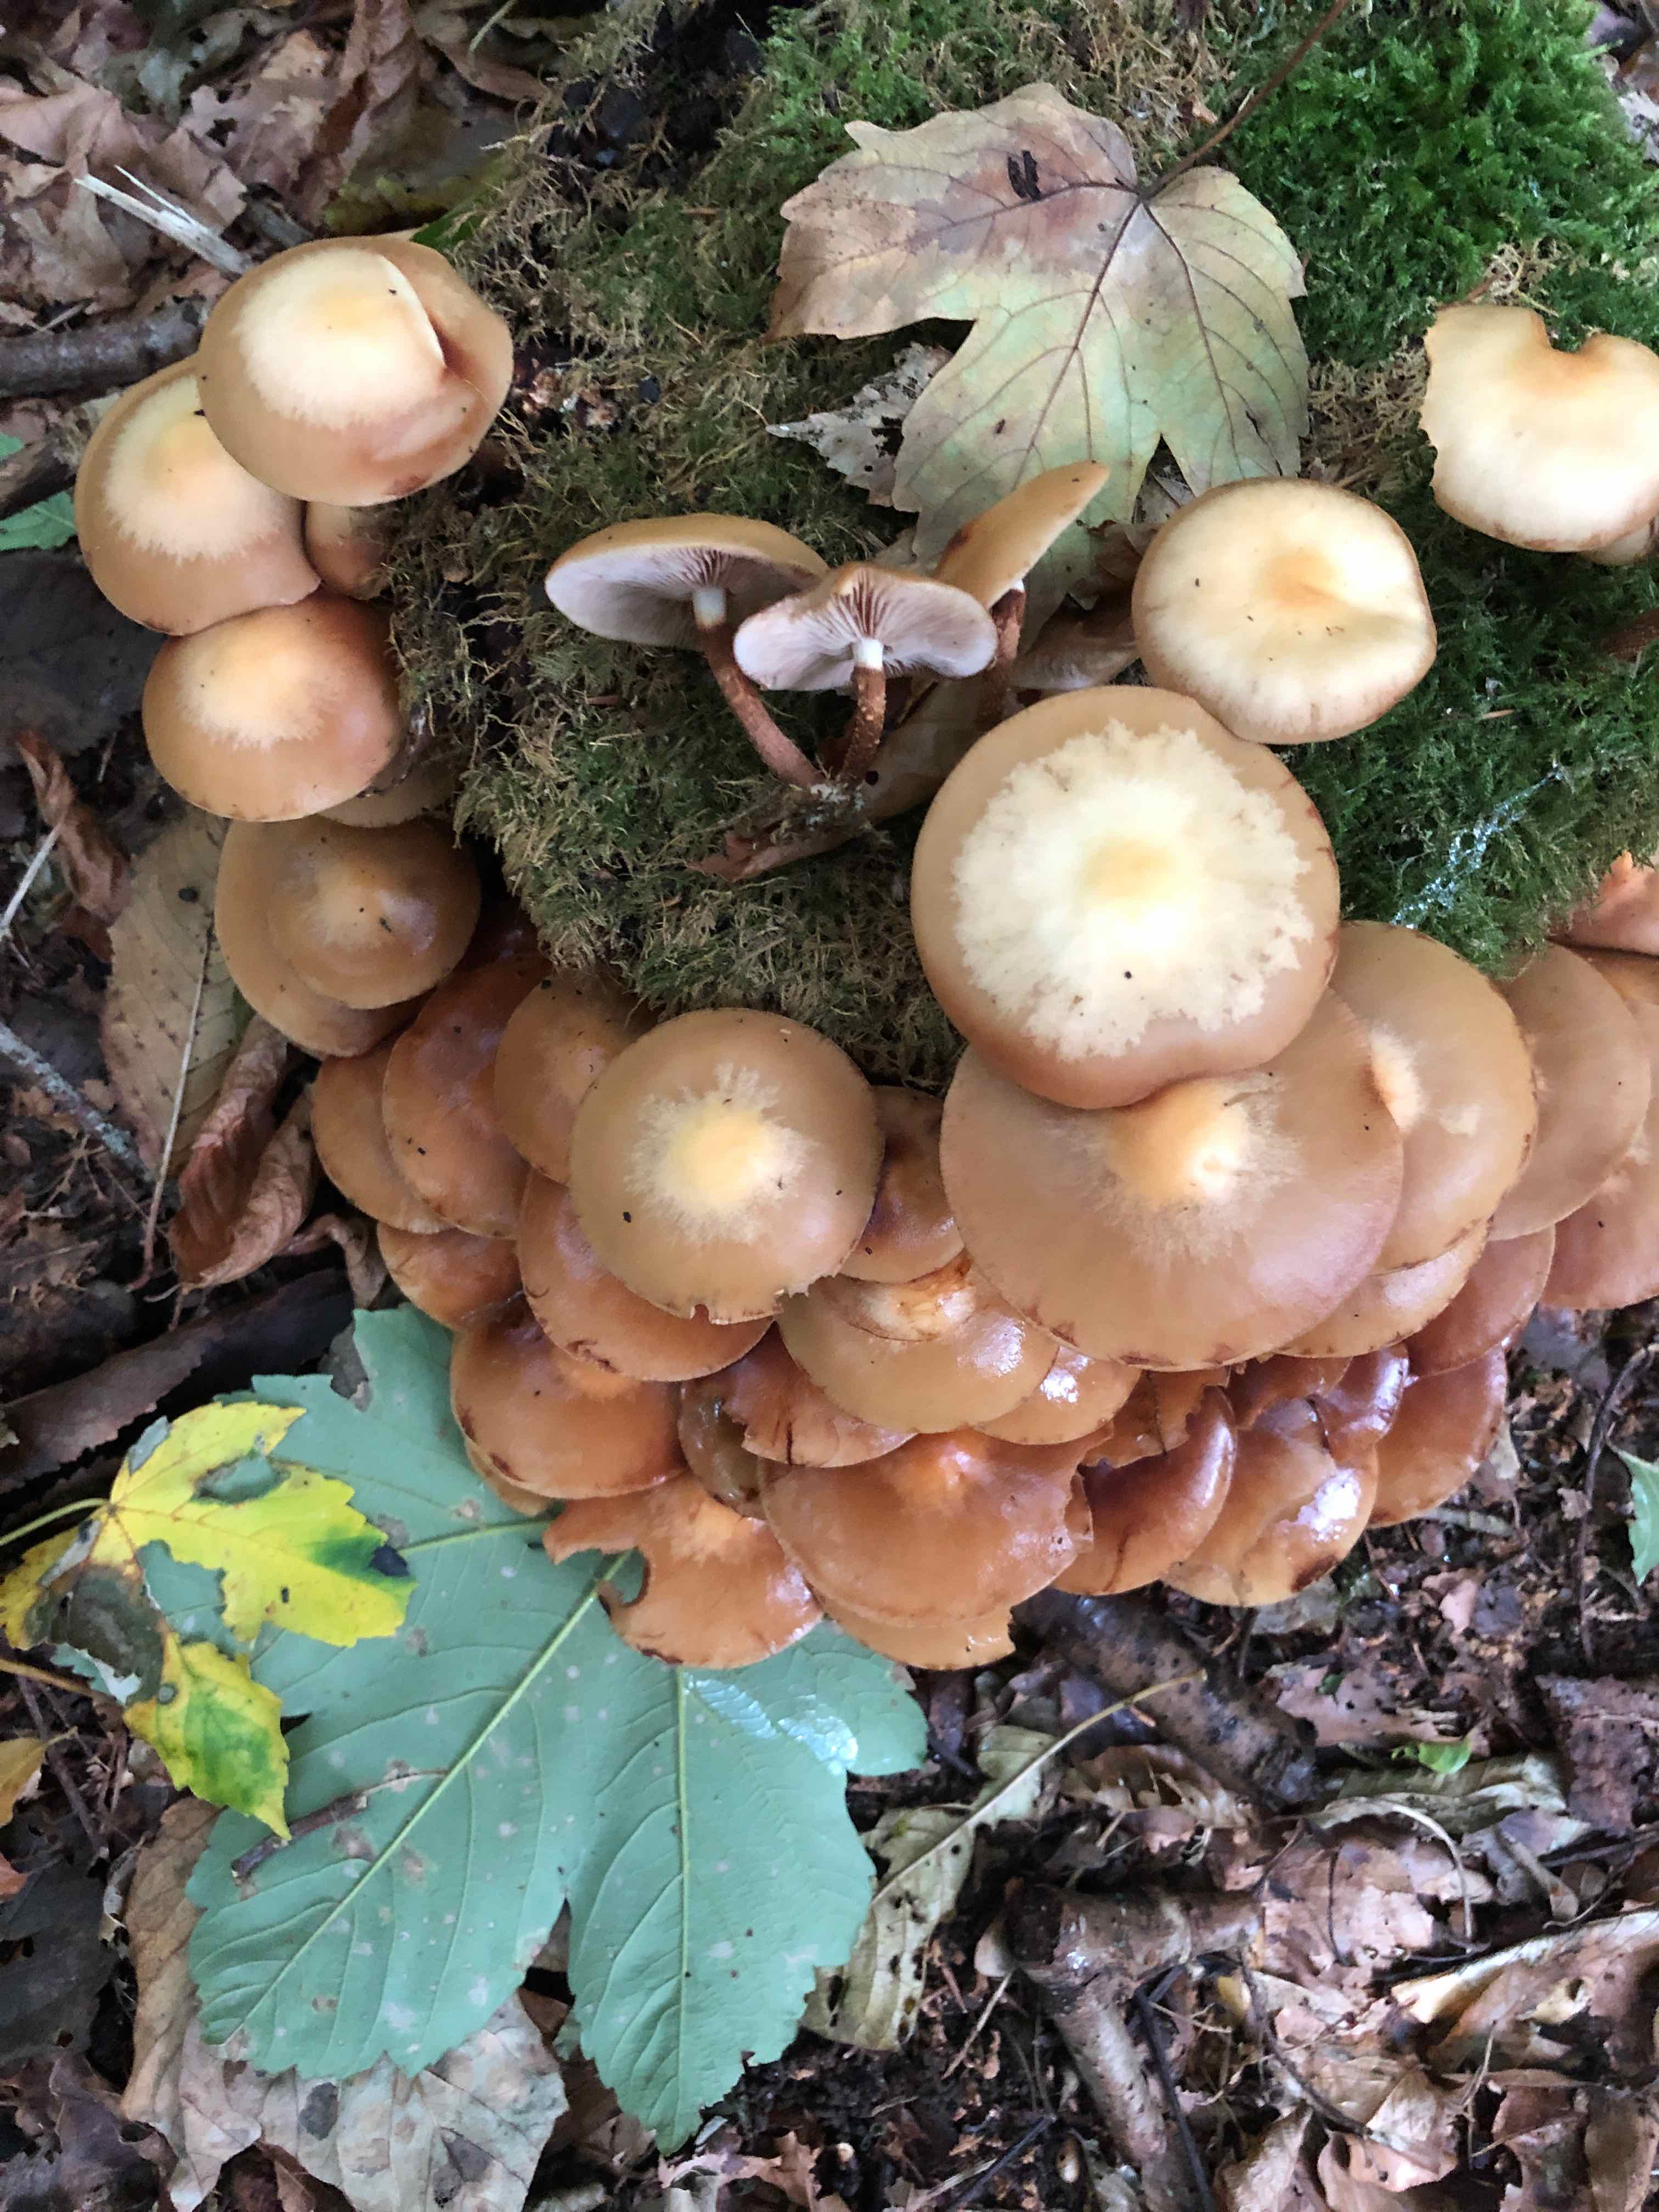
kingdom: Fungi
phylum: Basidiomycota
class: Agaricomycetes
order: Agaricales
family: Strophariaceae
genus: Kuehneromyces
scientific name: Kuehneromyces mutabilis
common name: foranderlig skælhat
